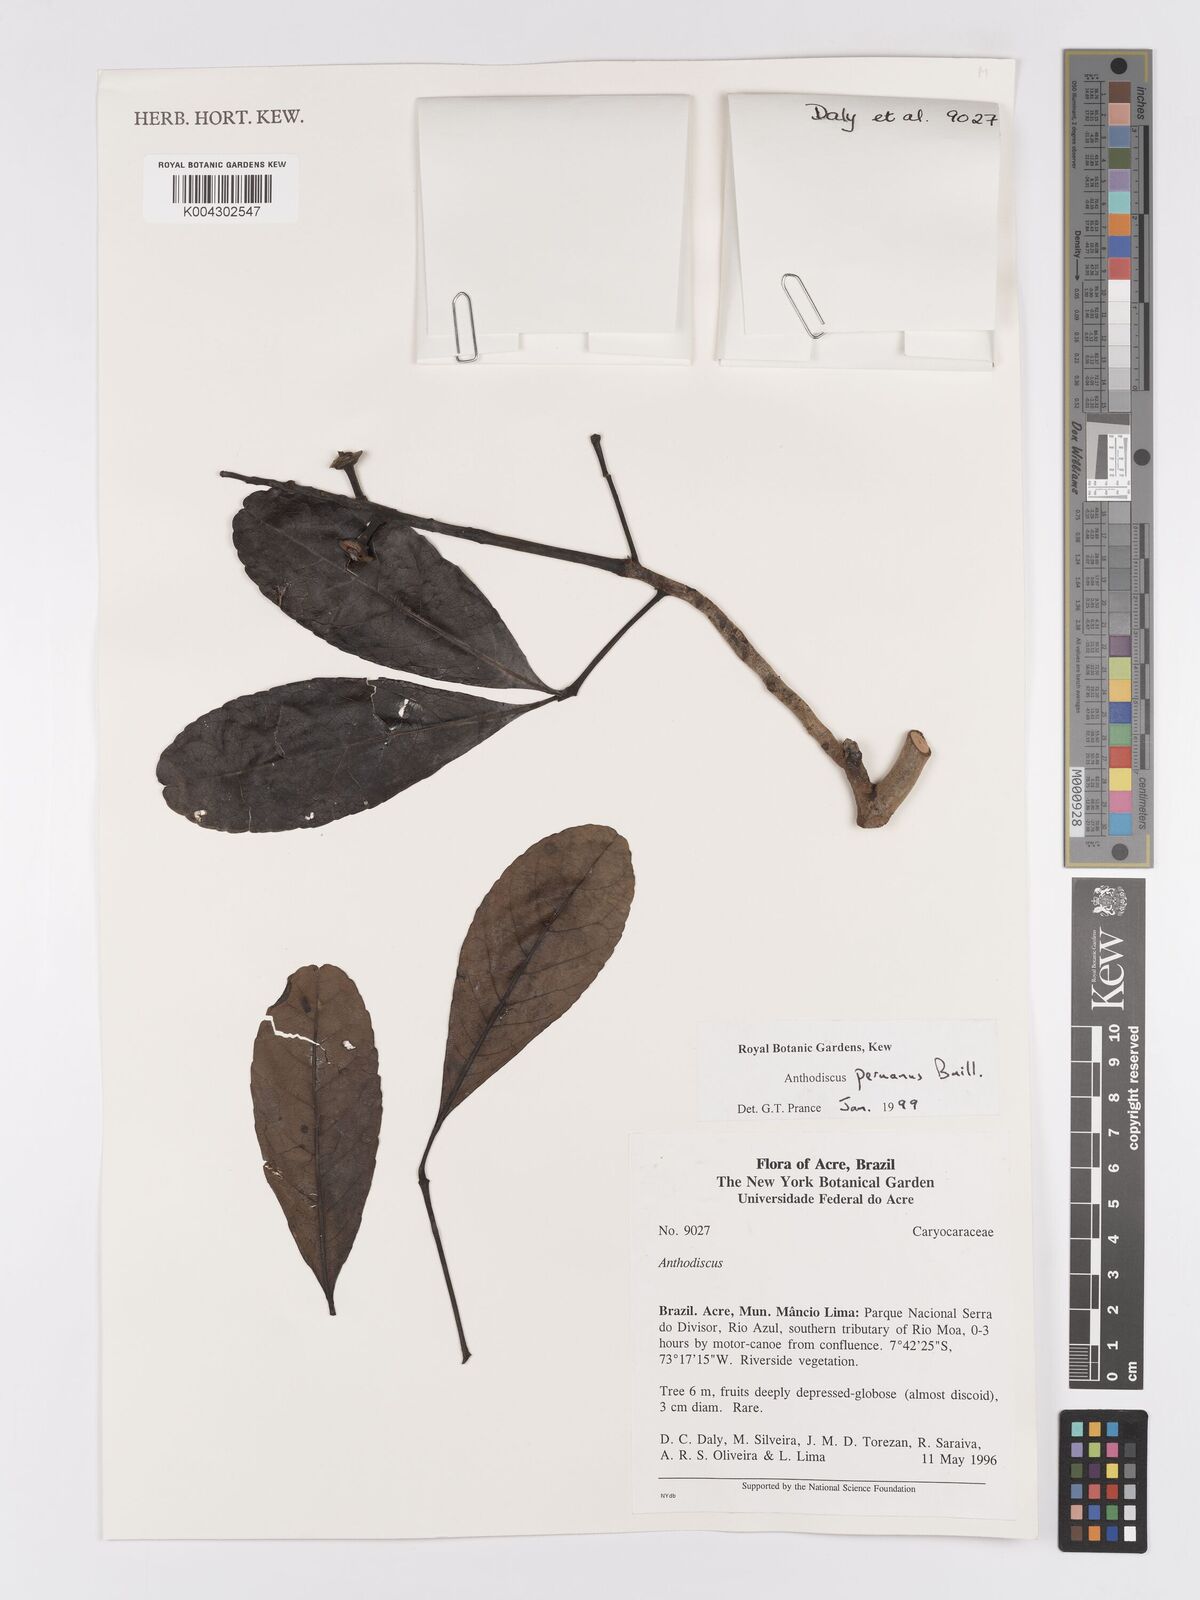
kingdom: Plantae
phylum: Tracheophyta
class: Magnoliopsida
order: Malpighiales
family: Caryocaraceae
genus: Anthodiscus
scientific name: Anthodiscus peruanus
